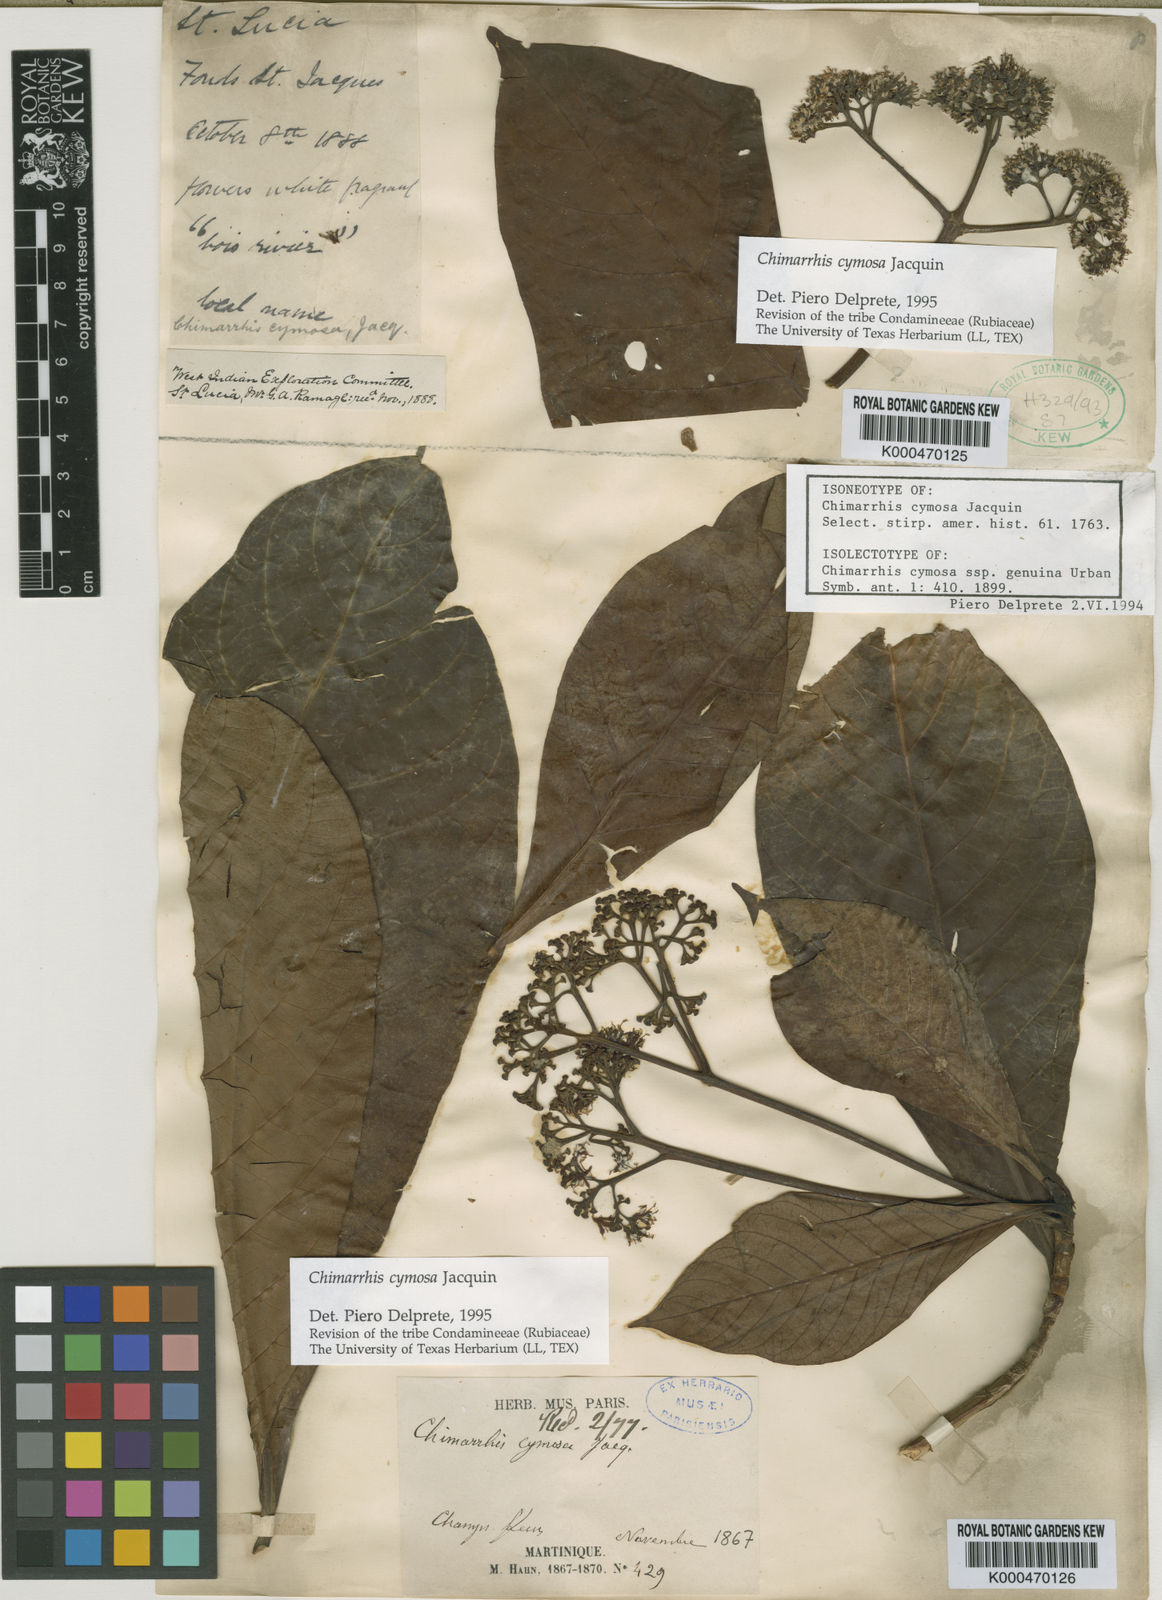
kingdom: Plantae
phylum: Tracheophyta
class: Magnoliopsida
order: Gentianales
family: Rubiaceae
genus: Chimarrhis
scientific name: Chimarrhis cymosa
